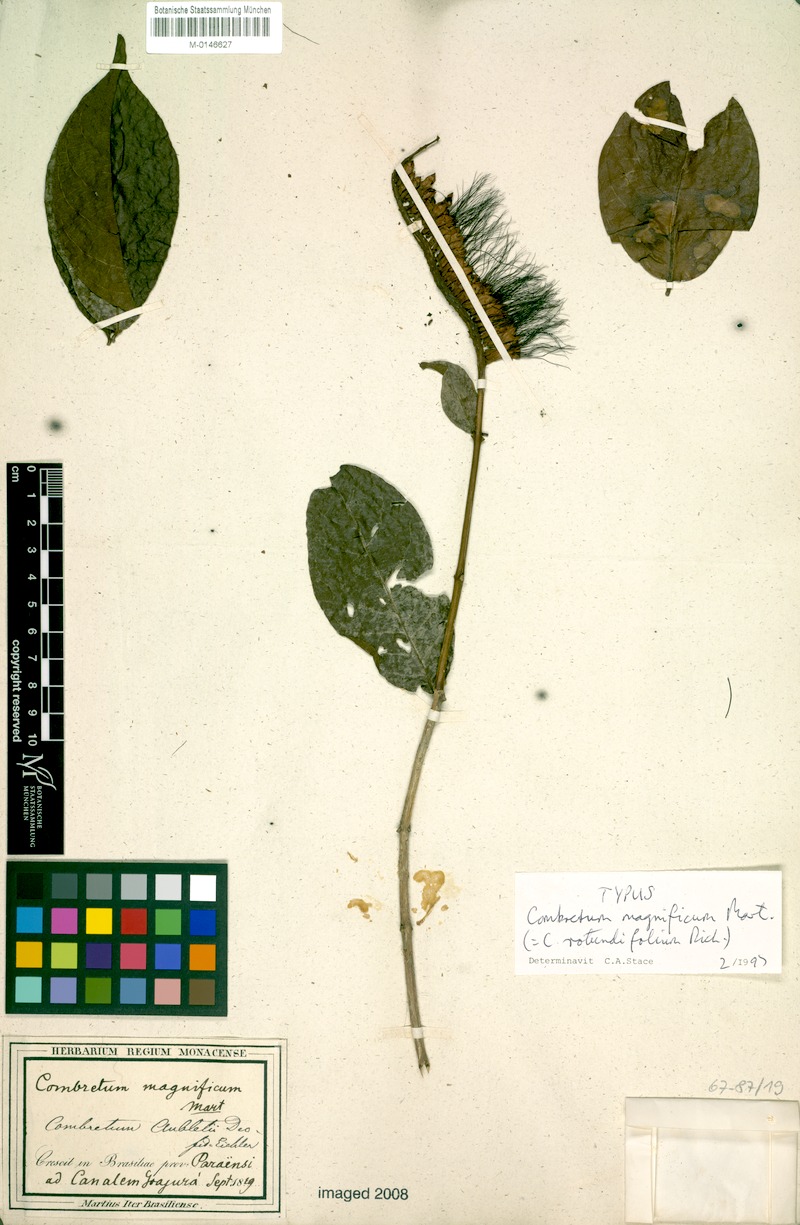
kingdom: Plantae
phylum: Tracheophyta
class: Magnoliopsida
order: Myrtales
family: Combretaceae
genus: Combretum
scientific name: Combretum rotundifolium
